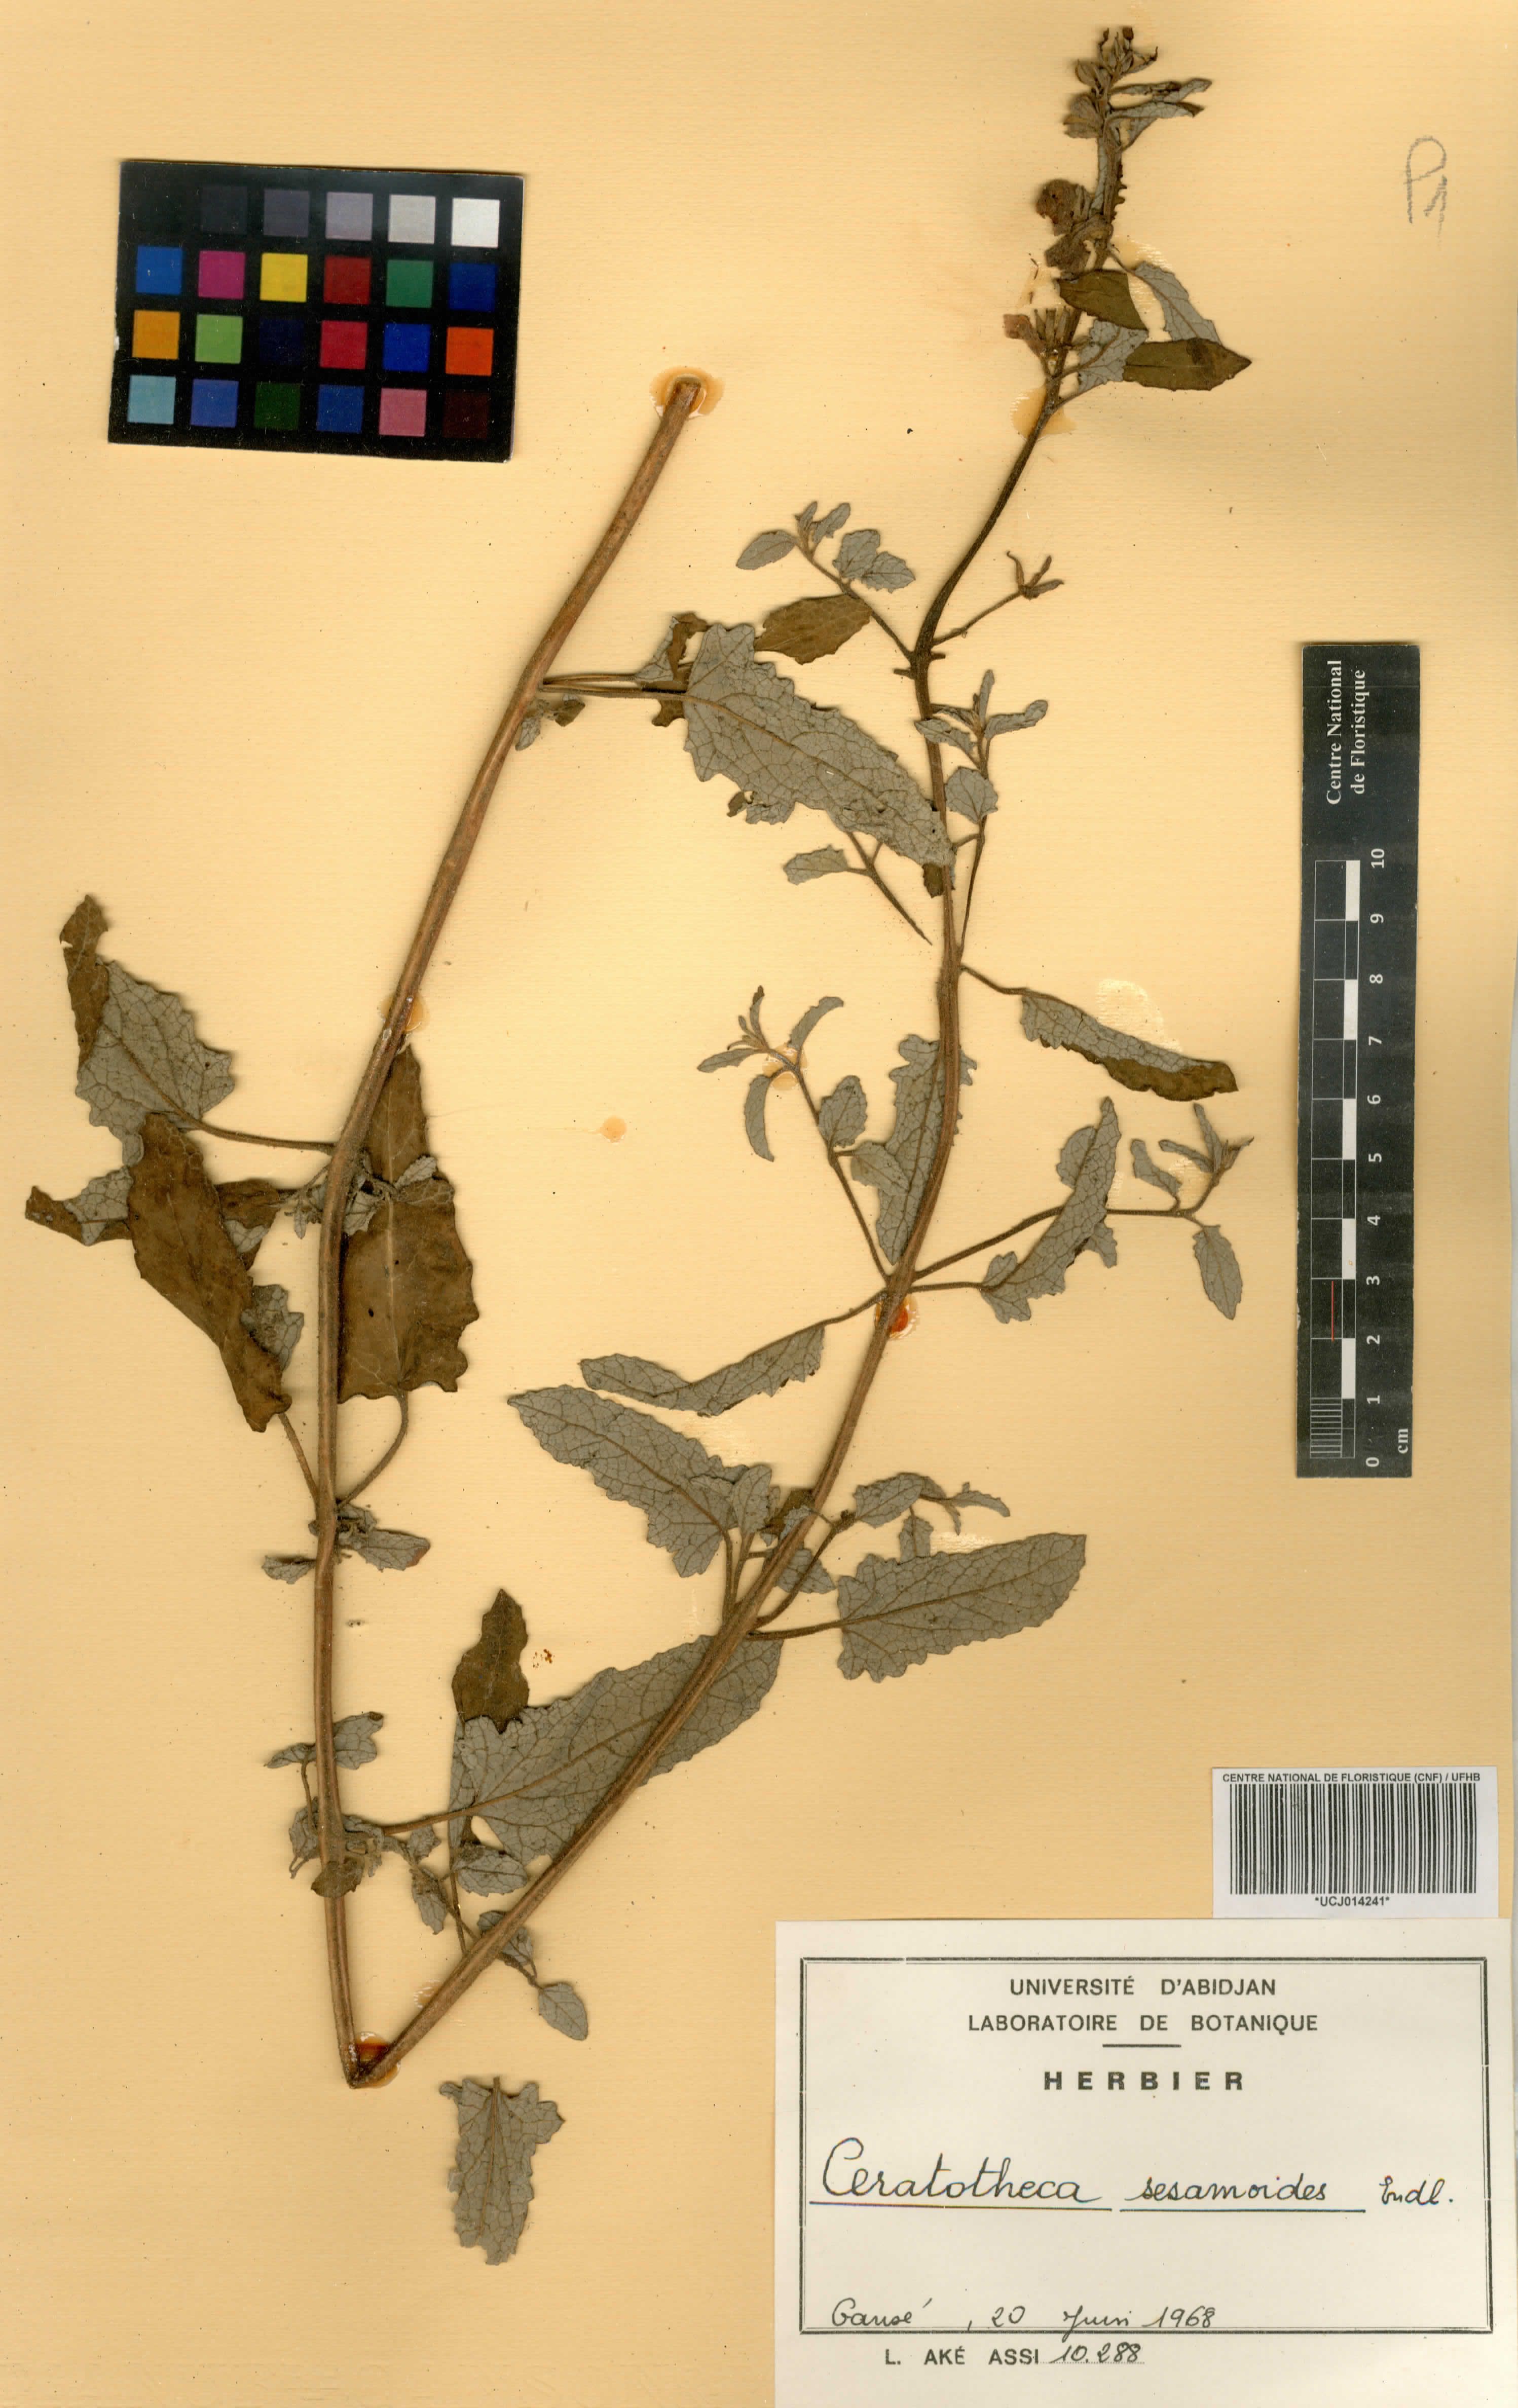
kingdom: Plantae
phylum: Tracheophyta
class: Magnoliopsida
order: Lamiales
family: Pedaliaceae
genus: Sesamum
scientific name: Sesamum sesamoides
